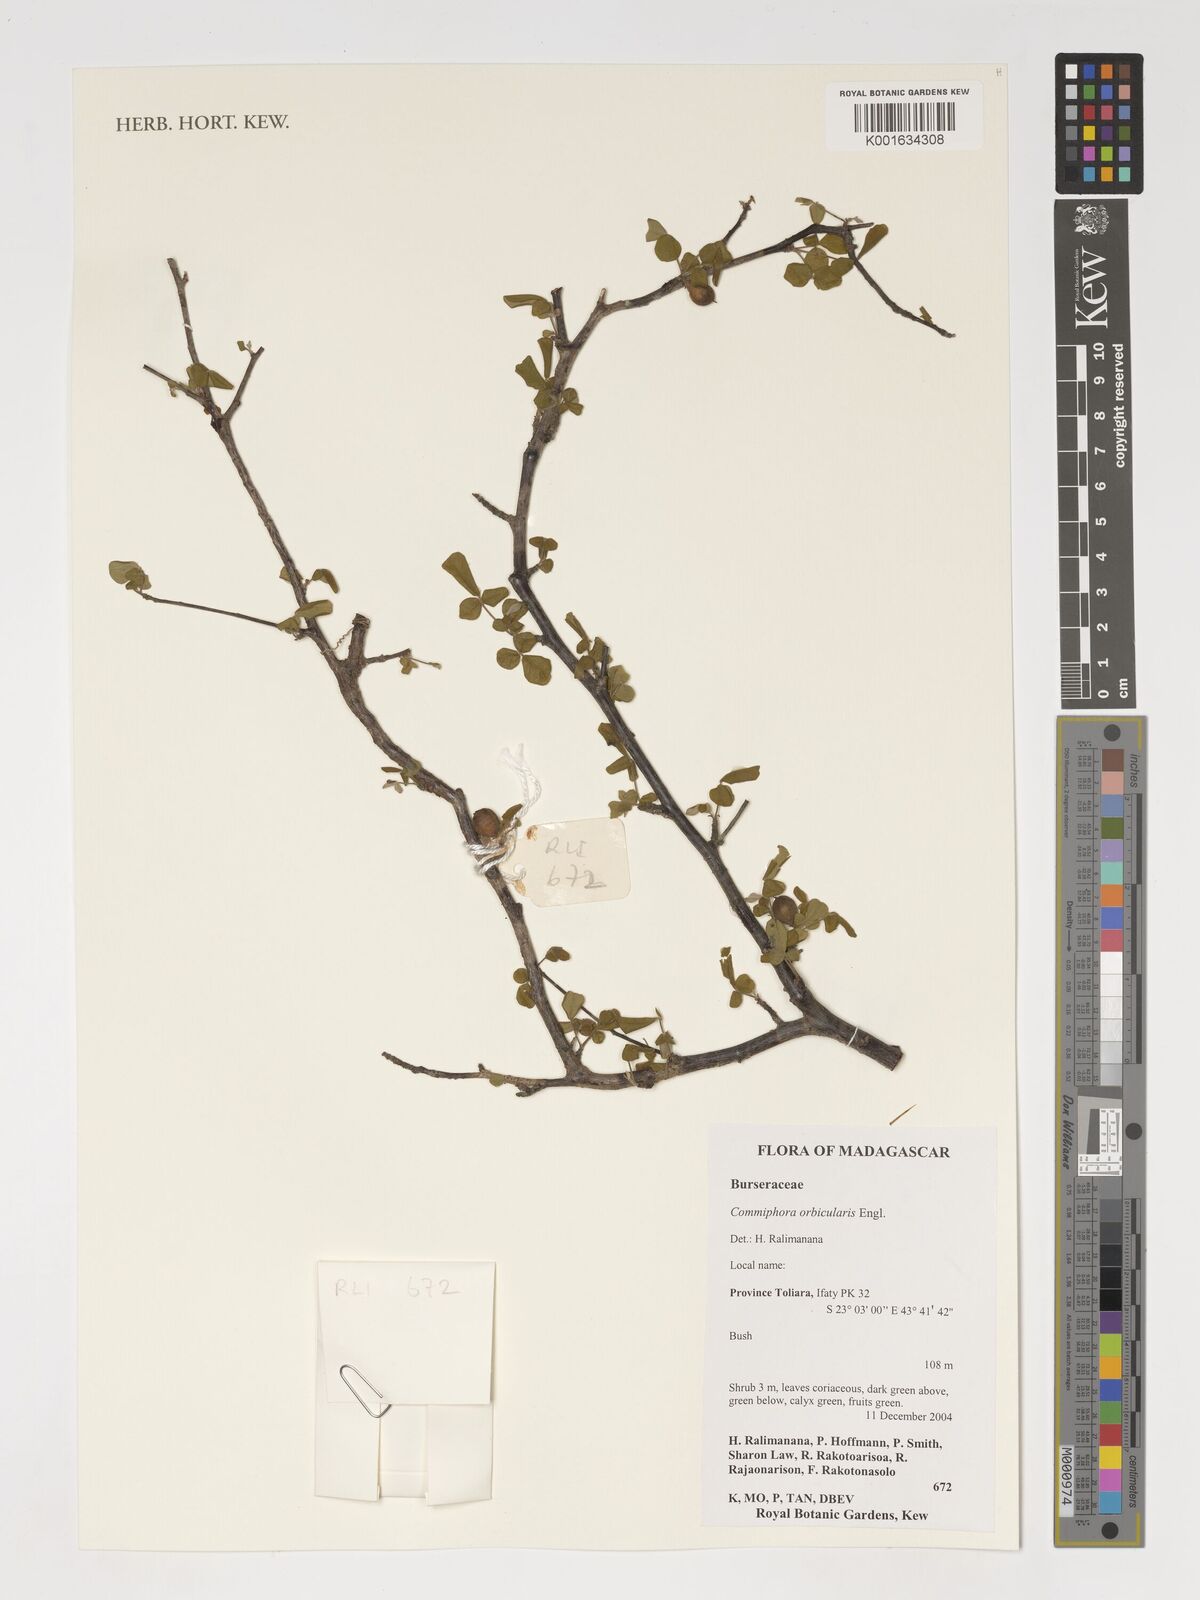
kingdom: Plantae
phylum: Tracheophyta
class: Magnoliopsida
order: Sapindales
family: Burseraceae
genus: Commiphora
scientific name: Commiphora orbicularis
